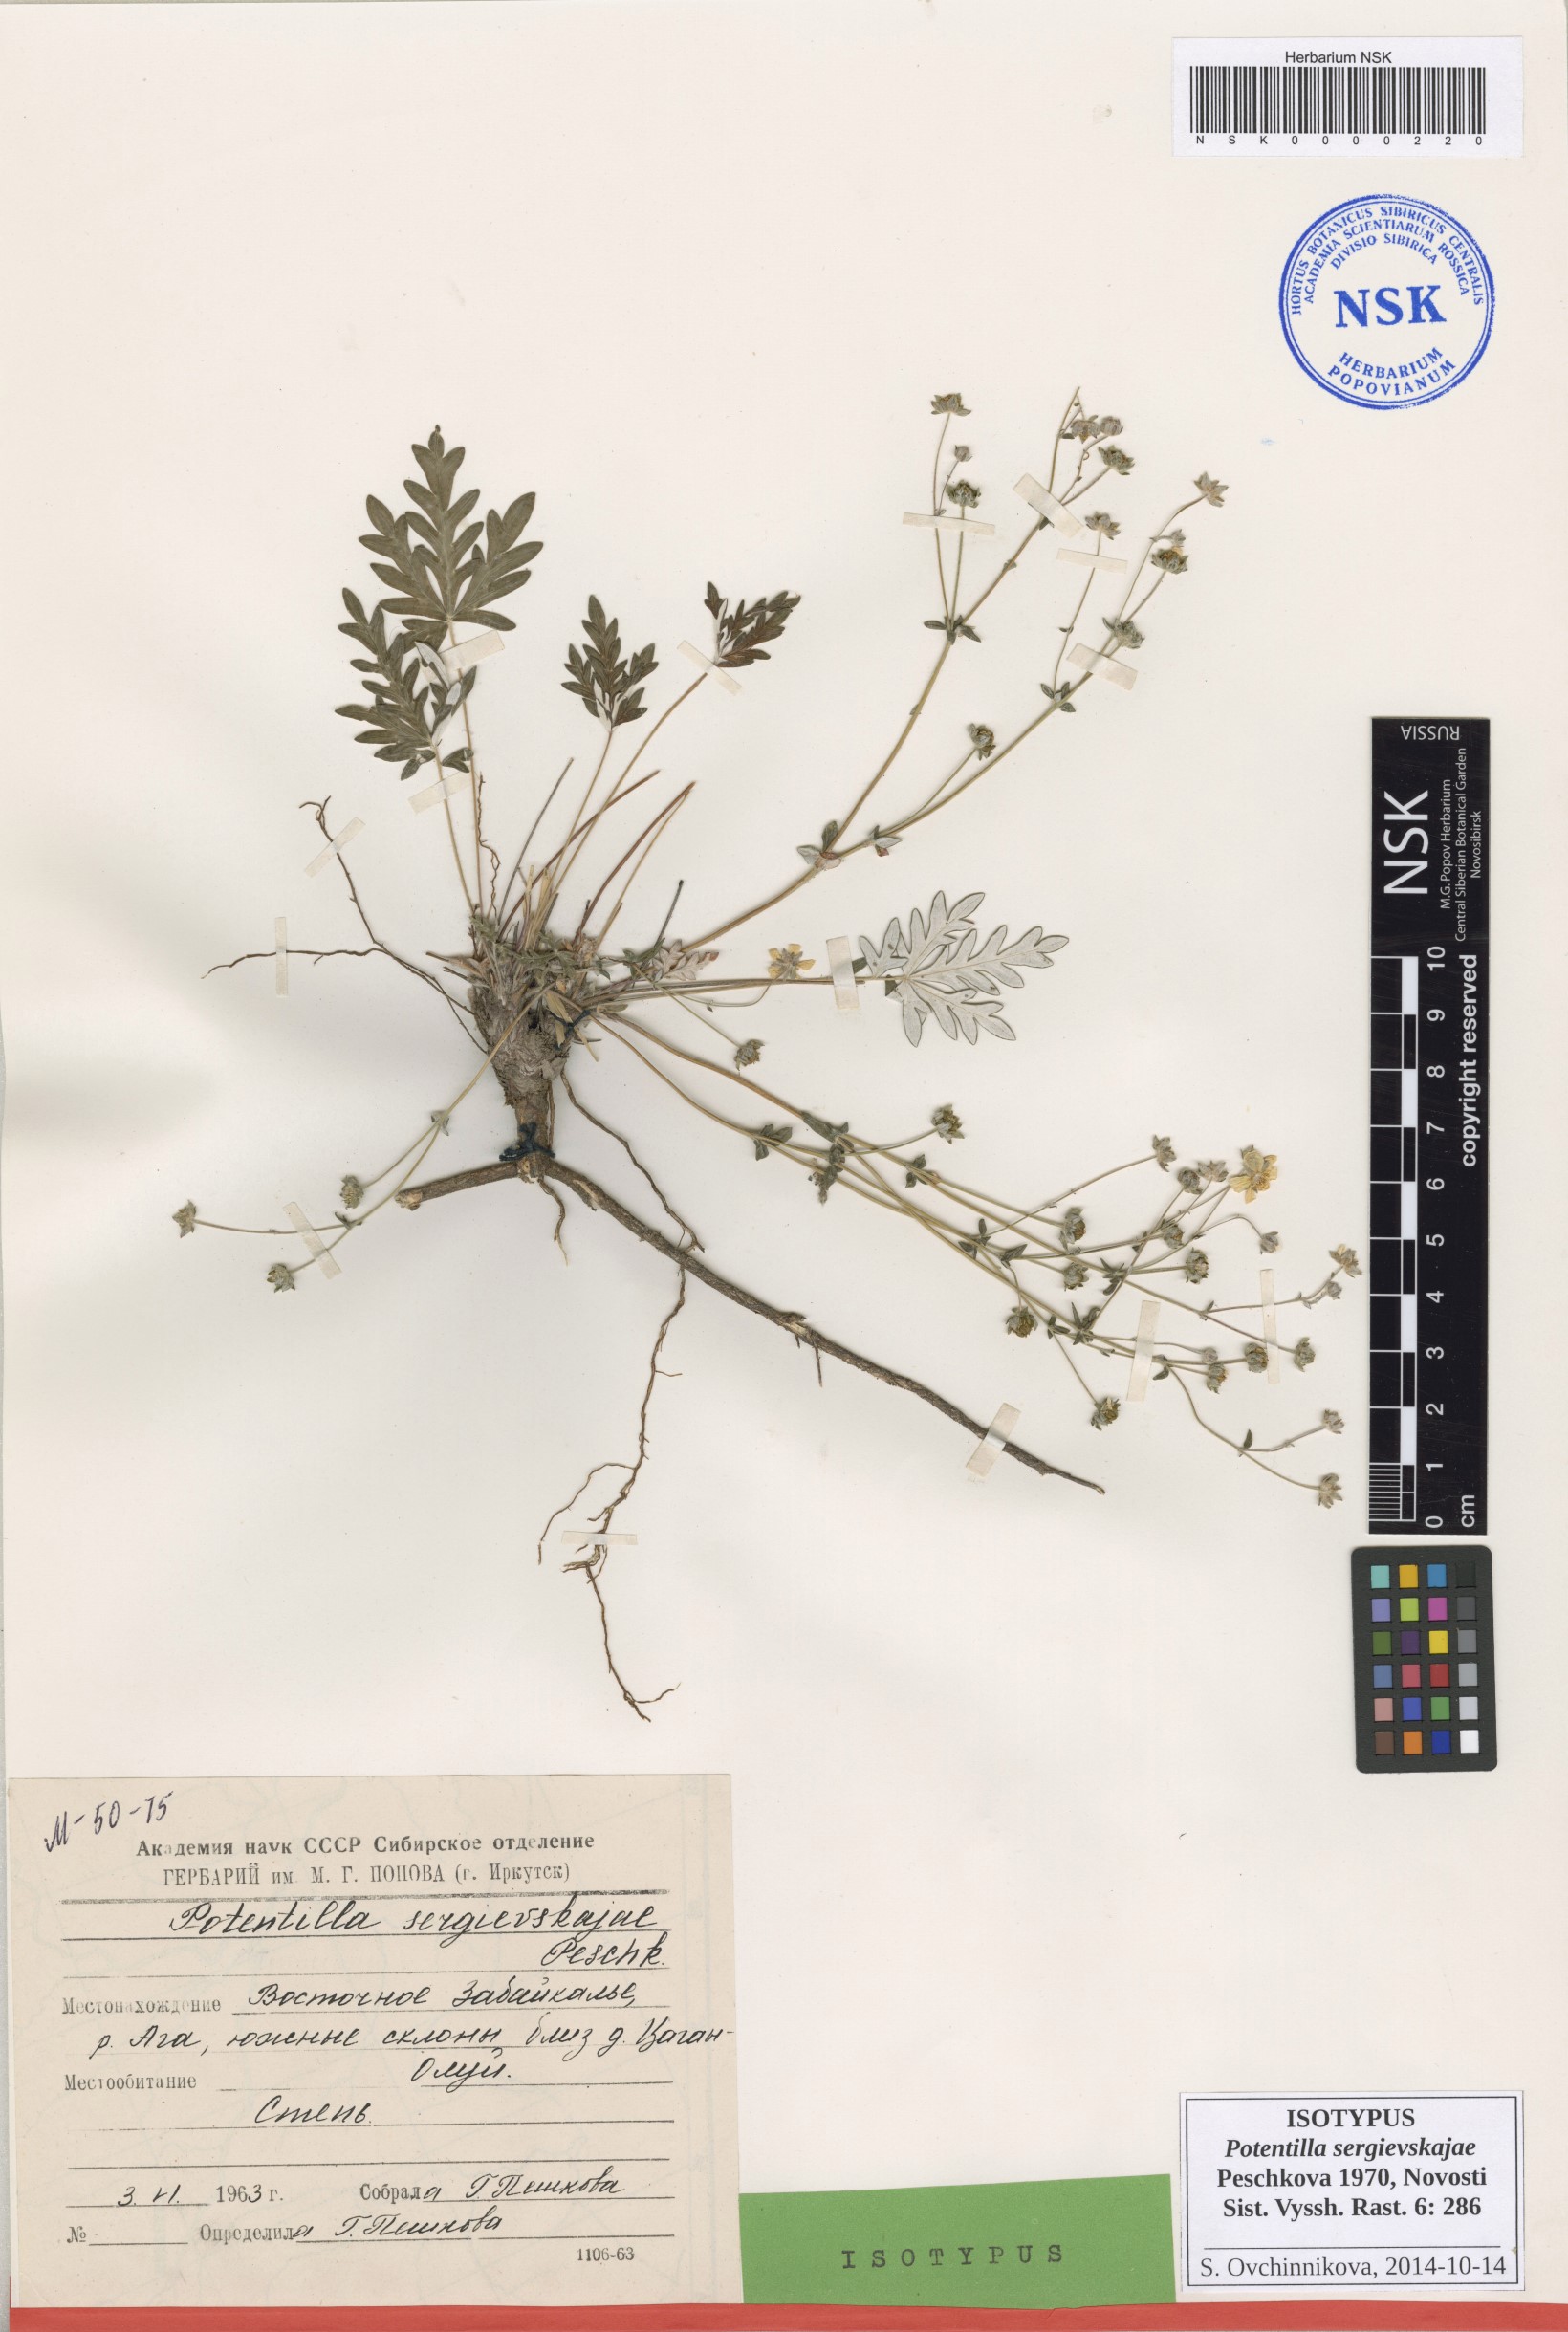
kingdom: Plantae
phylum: Tracheophyta
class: Magnoliopsida
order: Rosales
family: Rosaceae
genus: Potentilla
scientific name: Potentilla sergievskajae
